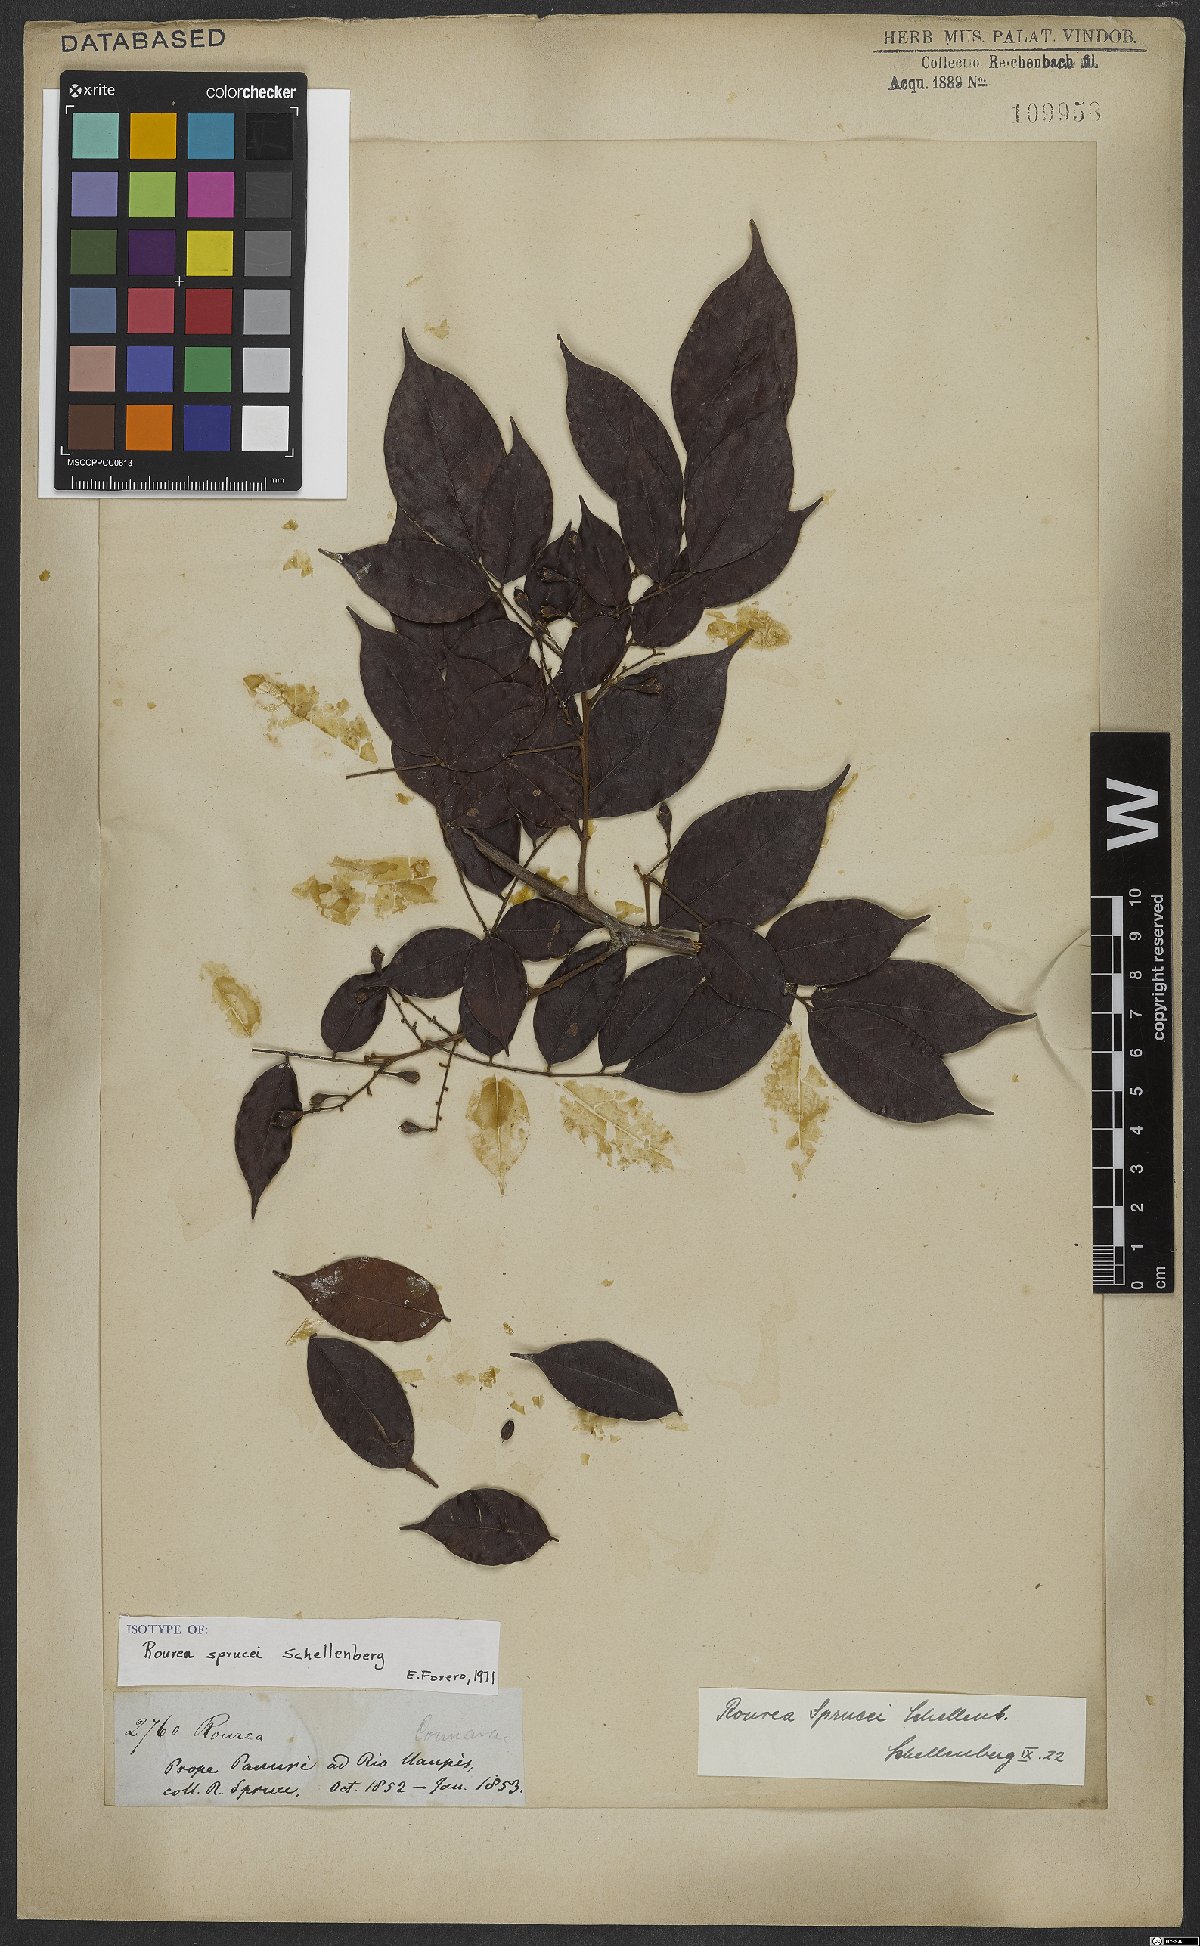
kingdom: Plantae
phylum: Tracheophyta
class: Magnoliopsida
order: Oxalidales
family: Connaraceae
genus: Rourea
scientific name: Rourea sprucei
